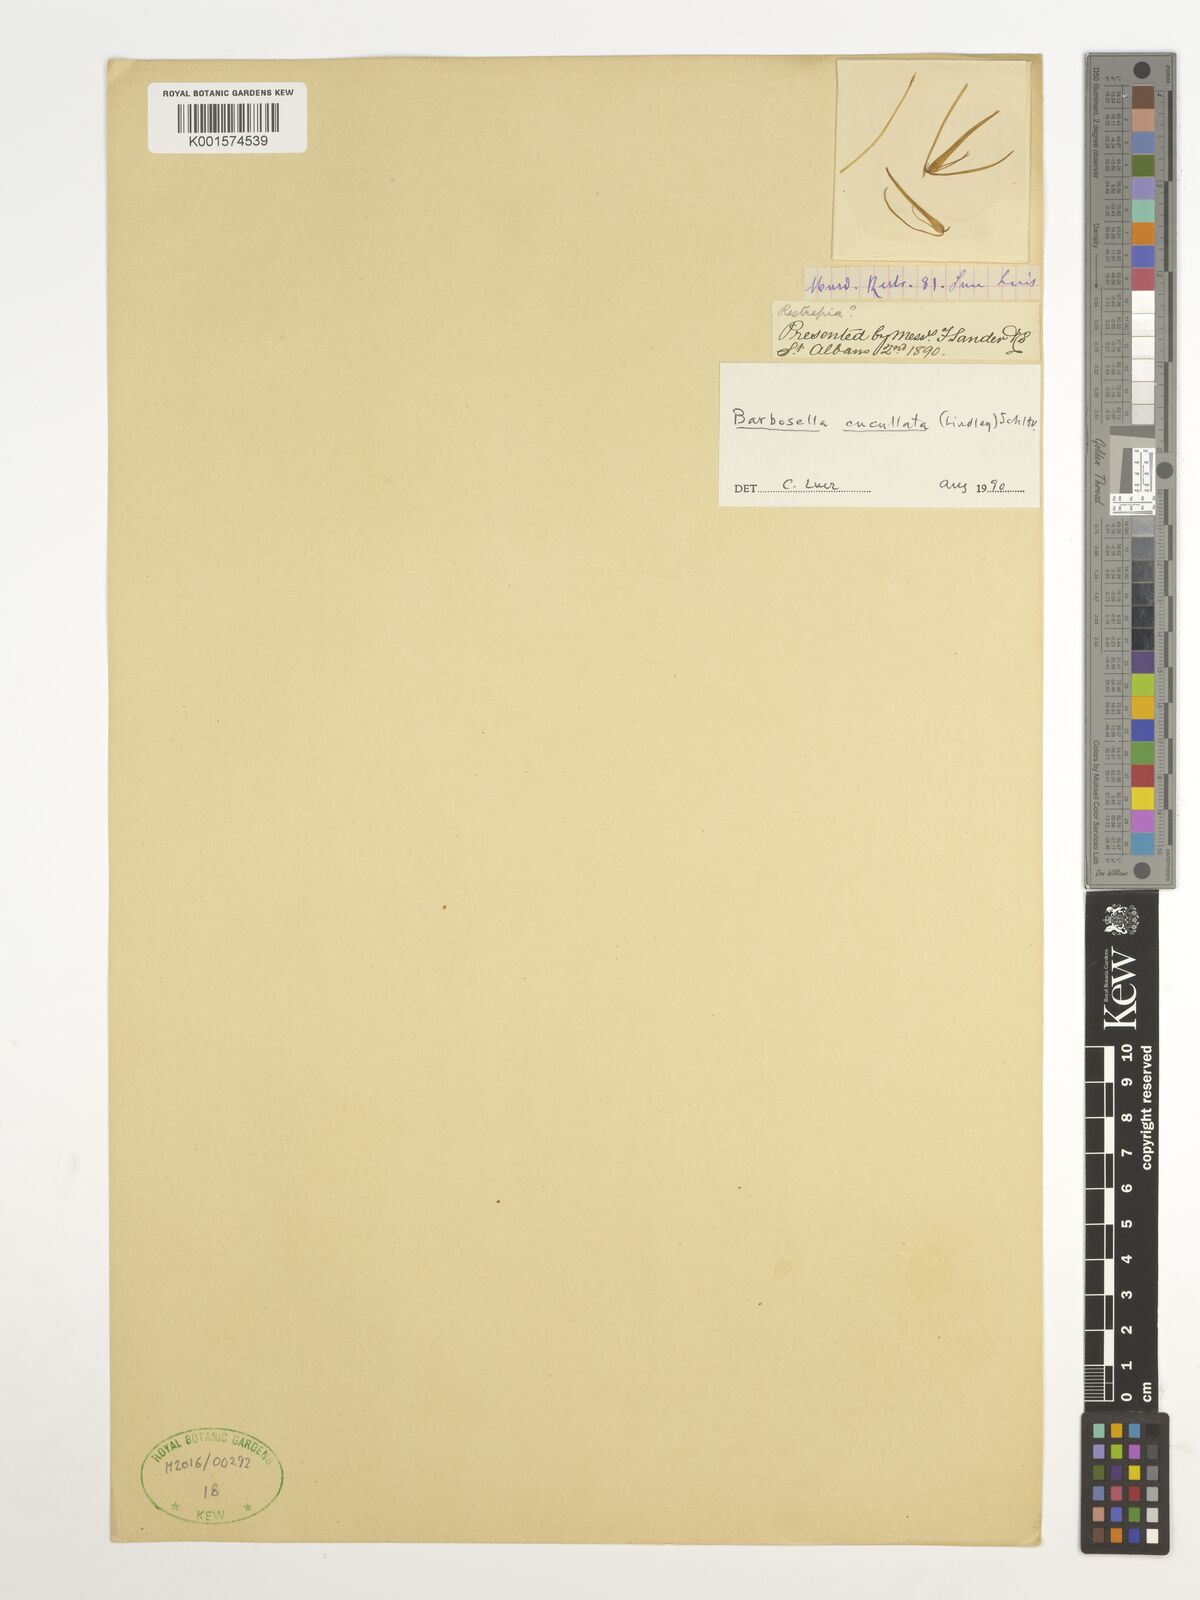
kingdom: Plantae
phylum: Tracheophyta
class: Liliopsida
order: Asparagales
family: Orchidaceae
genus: Barbosella
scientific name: Barbosella cucullata
